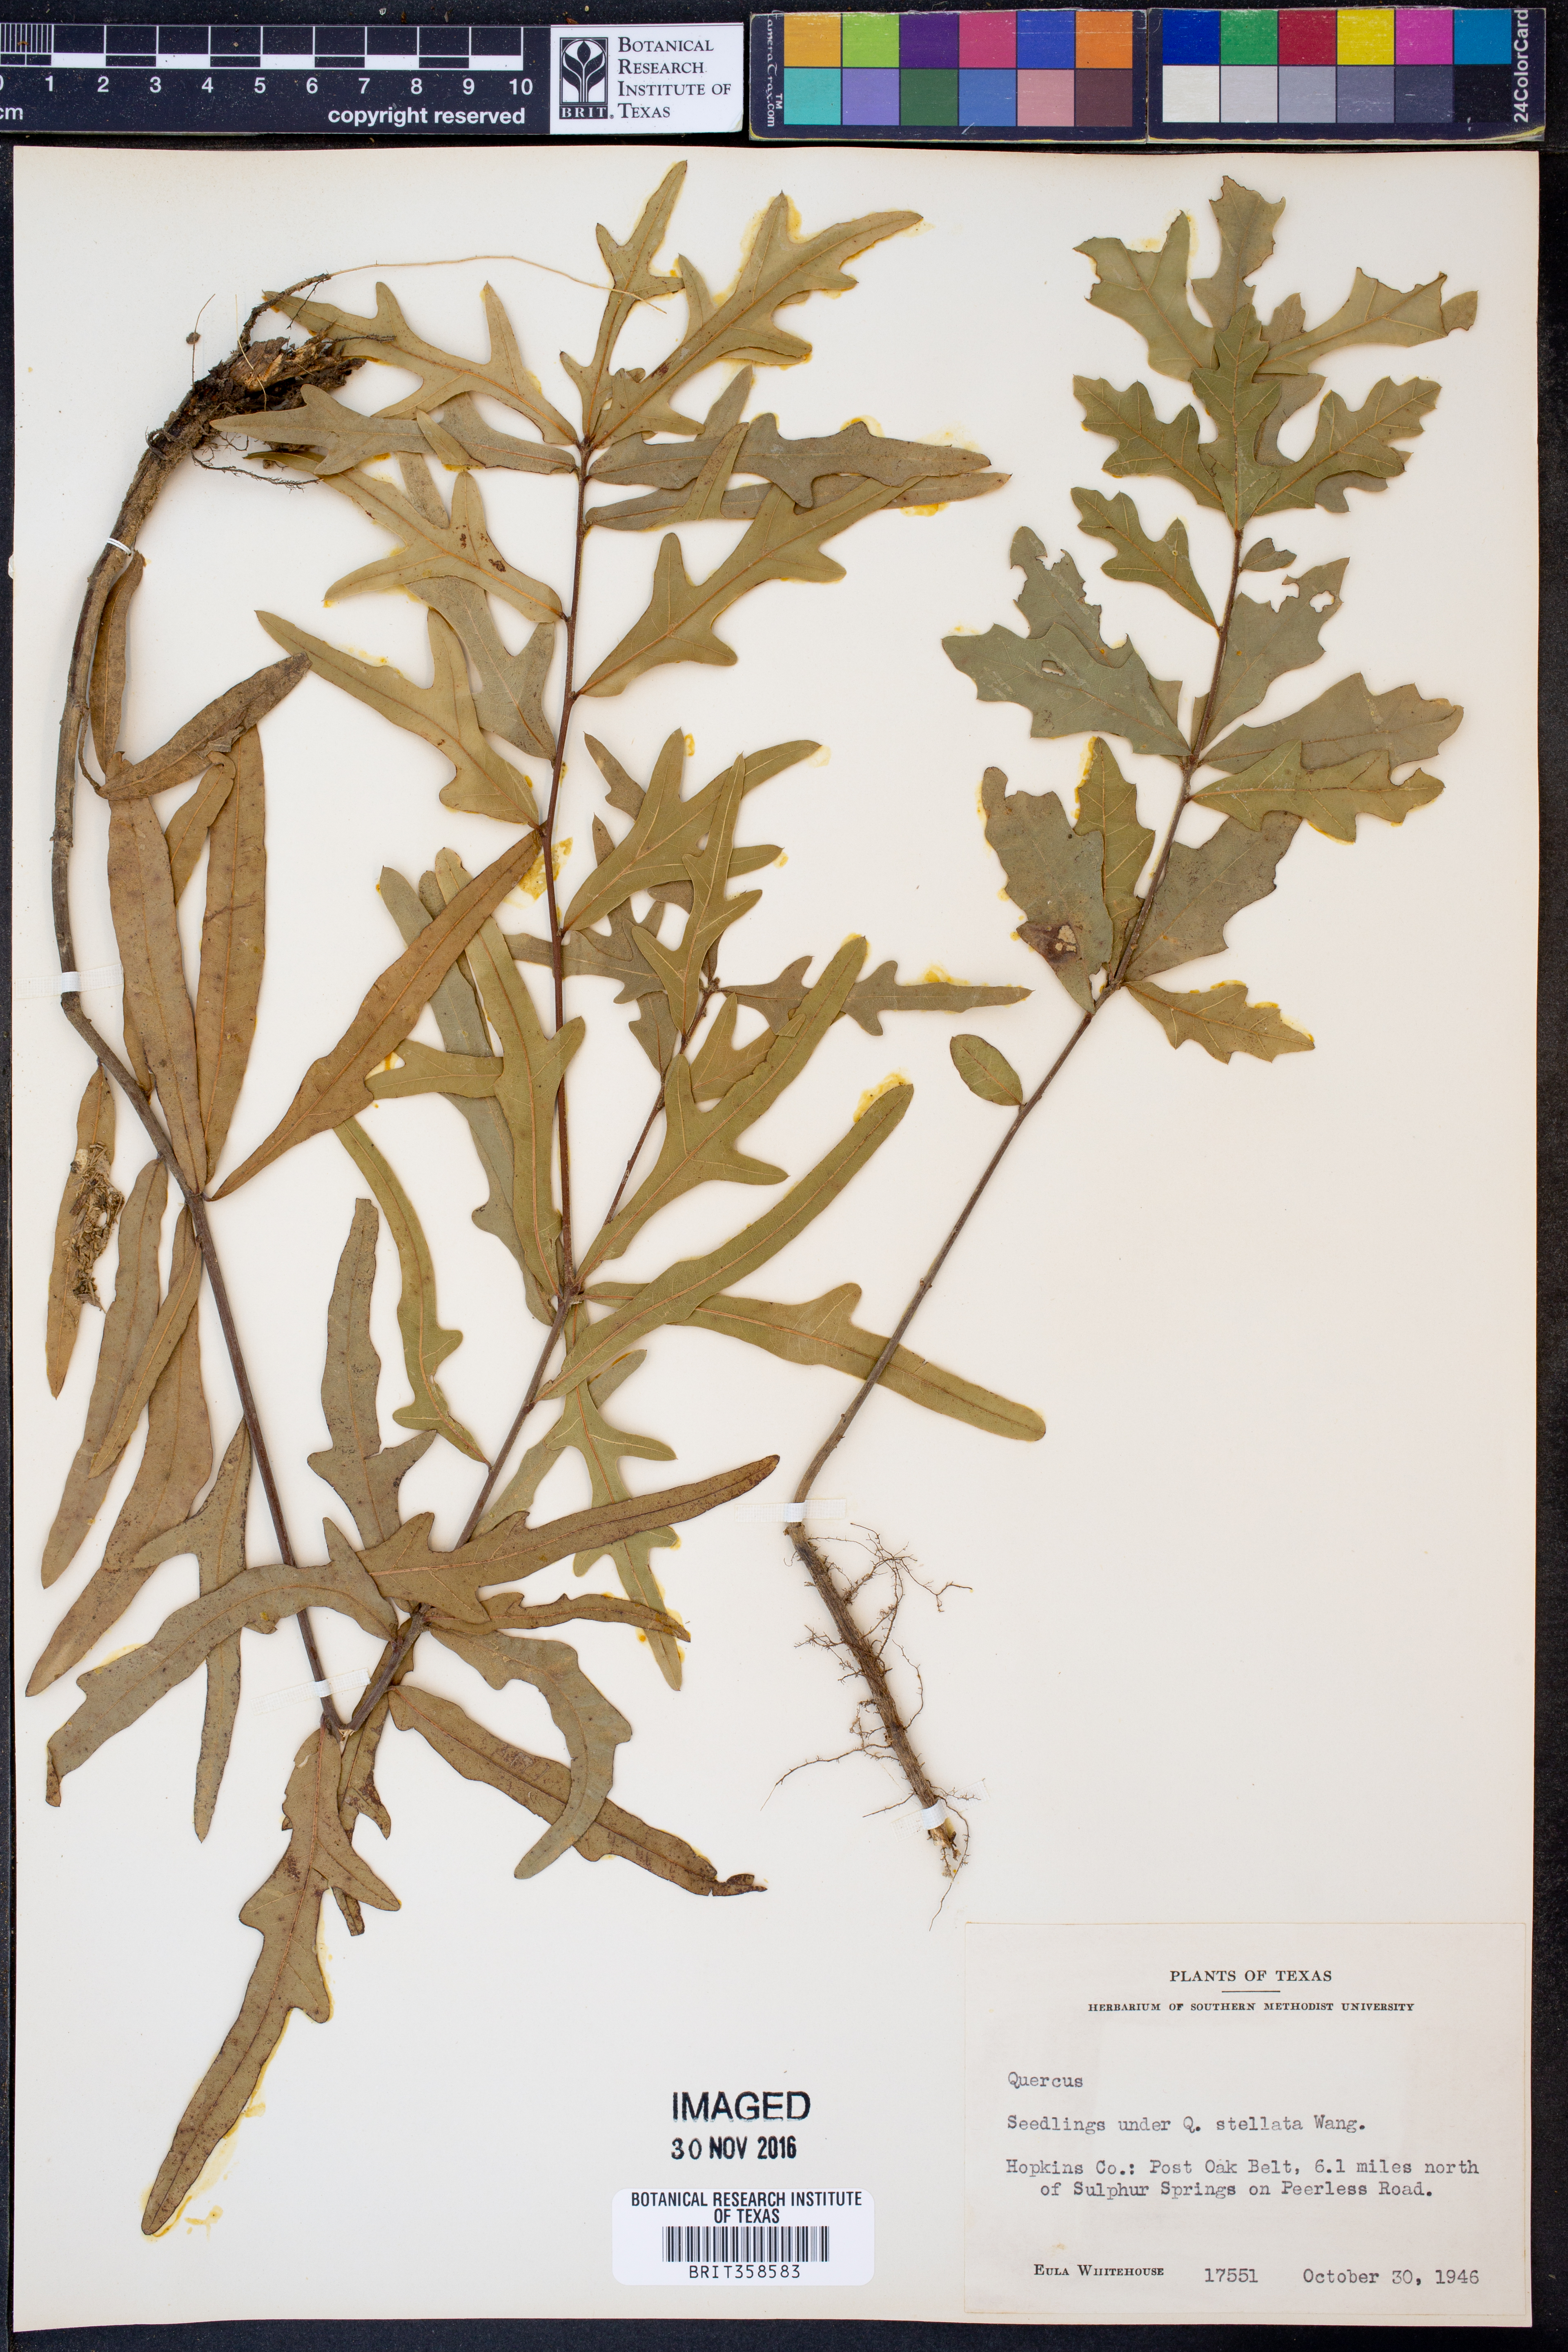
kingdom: Plantae
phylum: Tracheophyta
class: Magnoliopsida
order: Fagales
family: Fagaceae
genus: Quercus
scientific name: Quercus
